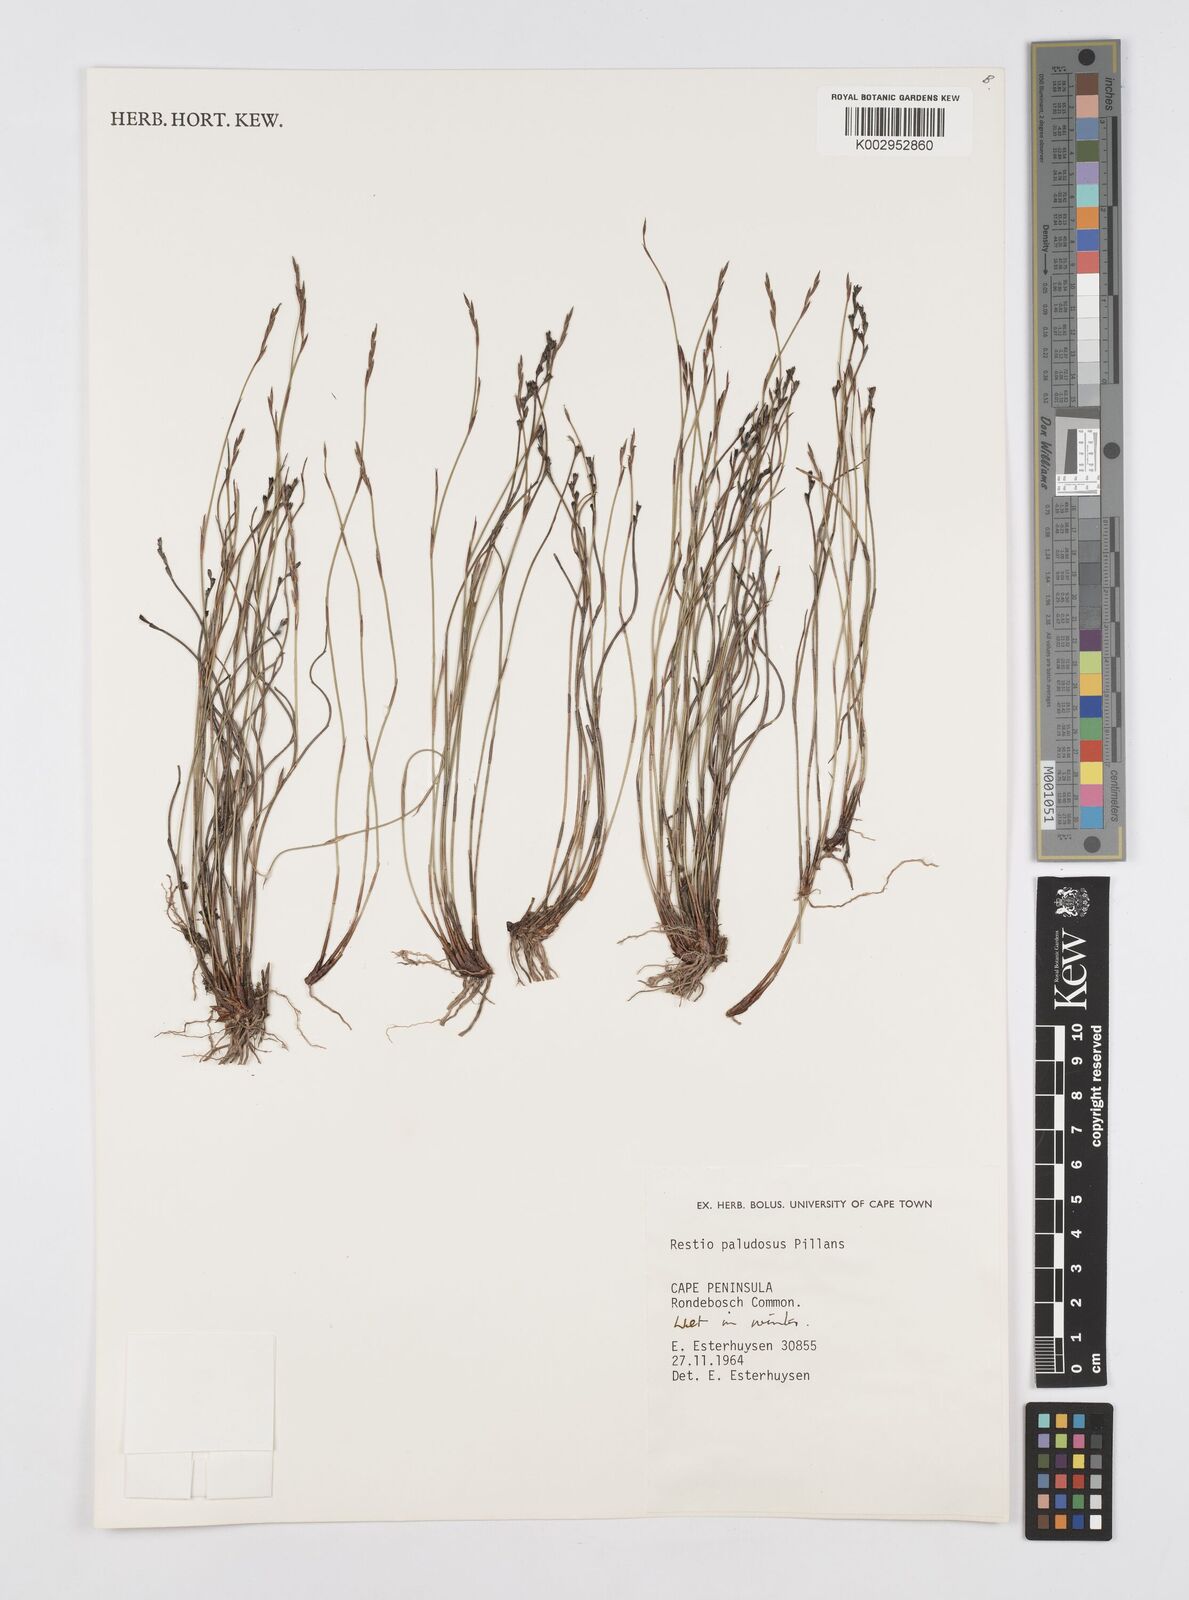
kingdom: Plantae
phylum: Tracheophyta
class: Liliopsida
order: Poales
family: Restionaceae
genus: Restio
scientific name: Restio paludosus
